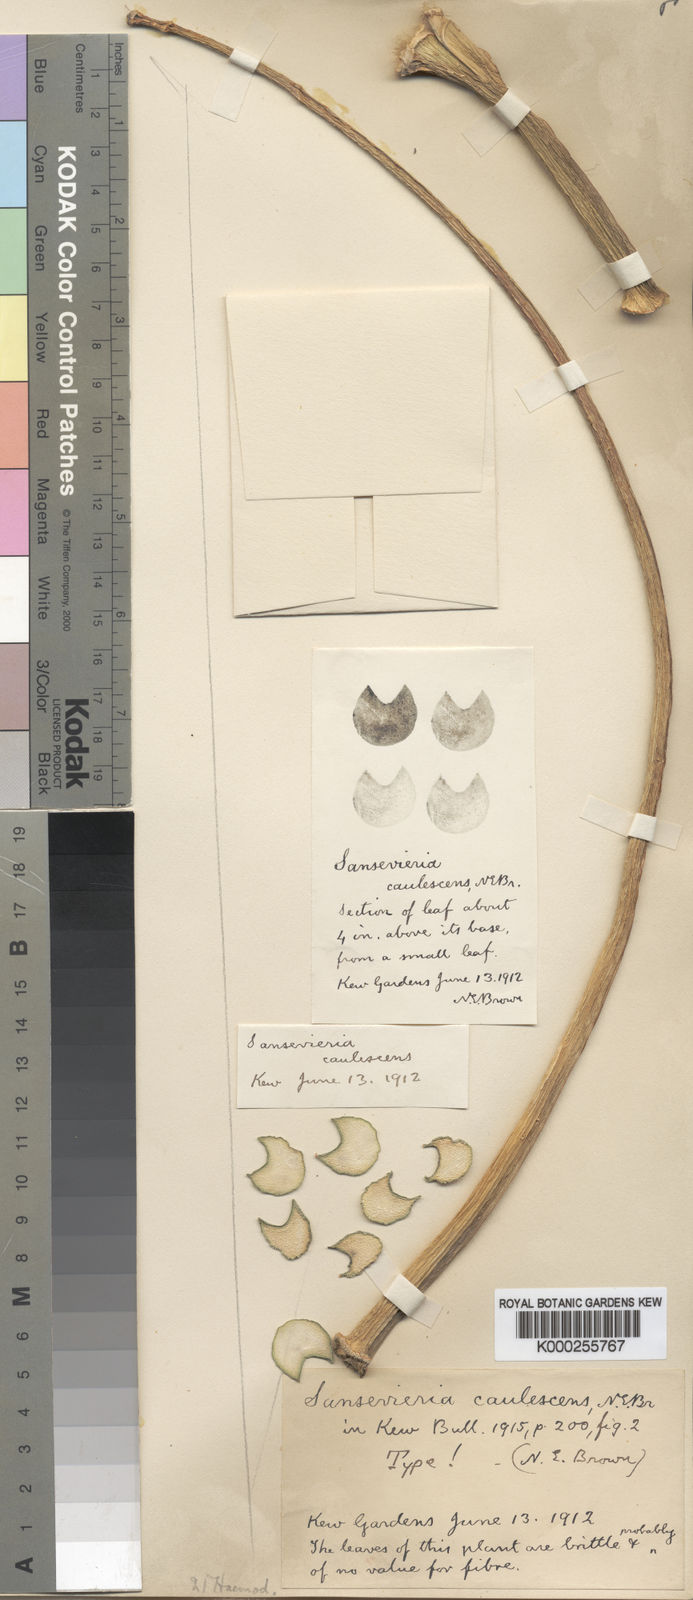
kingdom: Plantae
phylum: Tracheophyta
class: Liliopsida
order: Asparagales
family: Asparagaceae
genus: Dracaena
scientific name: Dracaena caulescens
